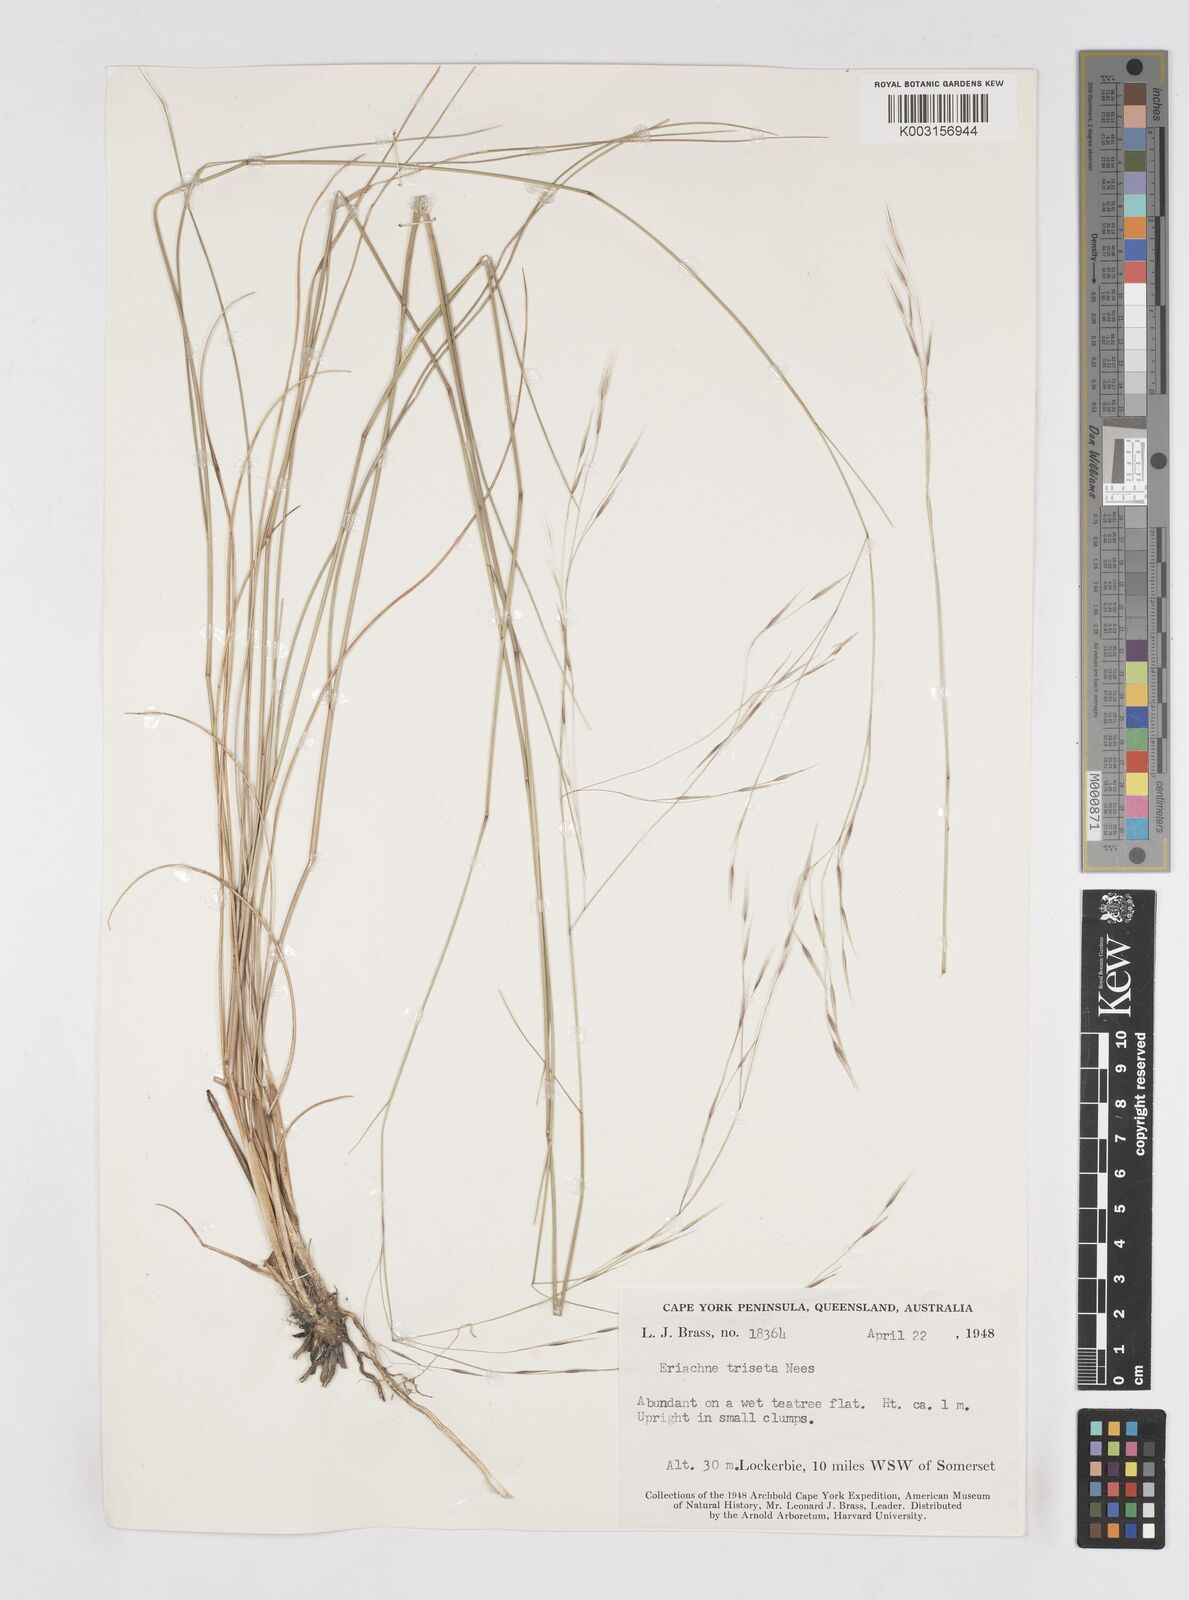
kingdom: Plantae
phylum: Tracheophyta
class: Liliopsida
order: Poales
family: Poaceae
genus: Eriachne
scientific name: Eriachne triseta
